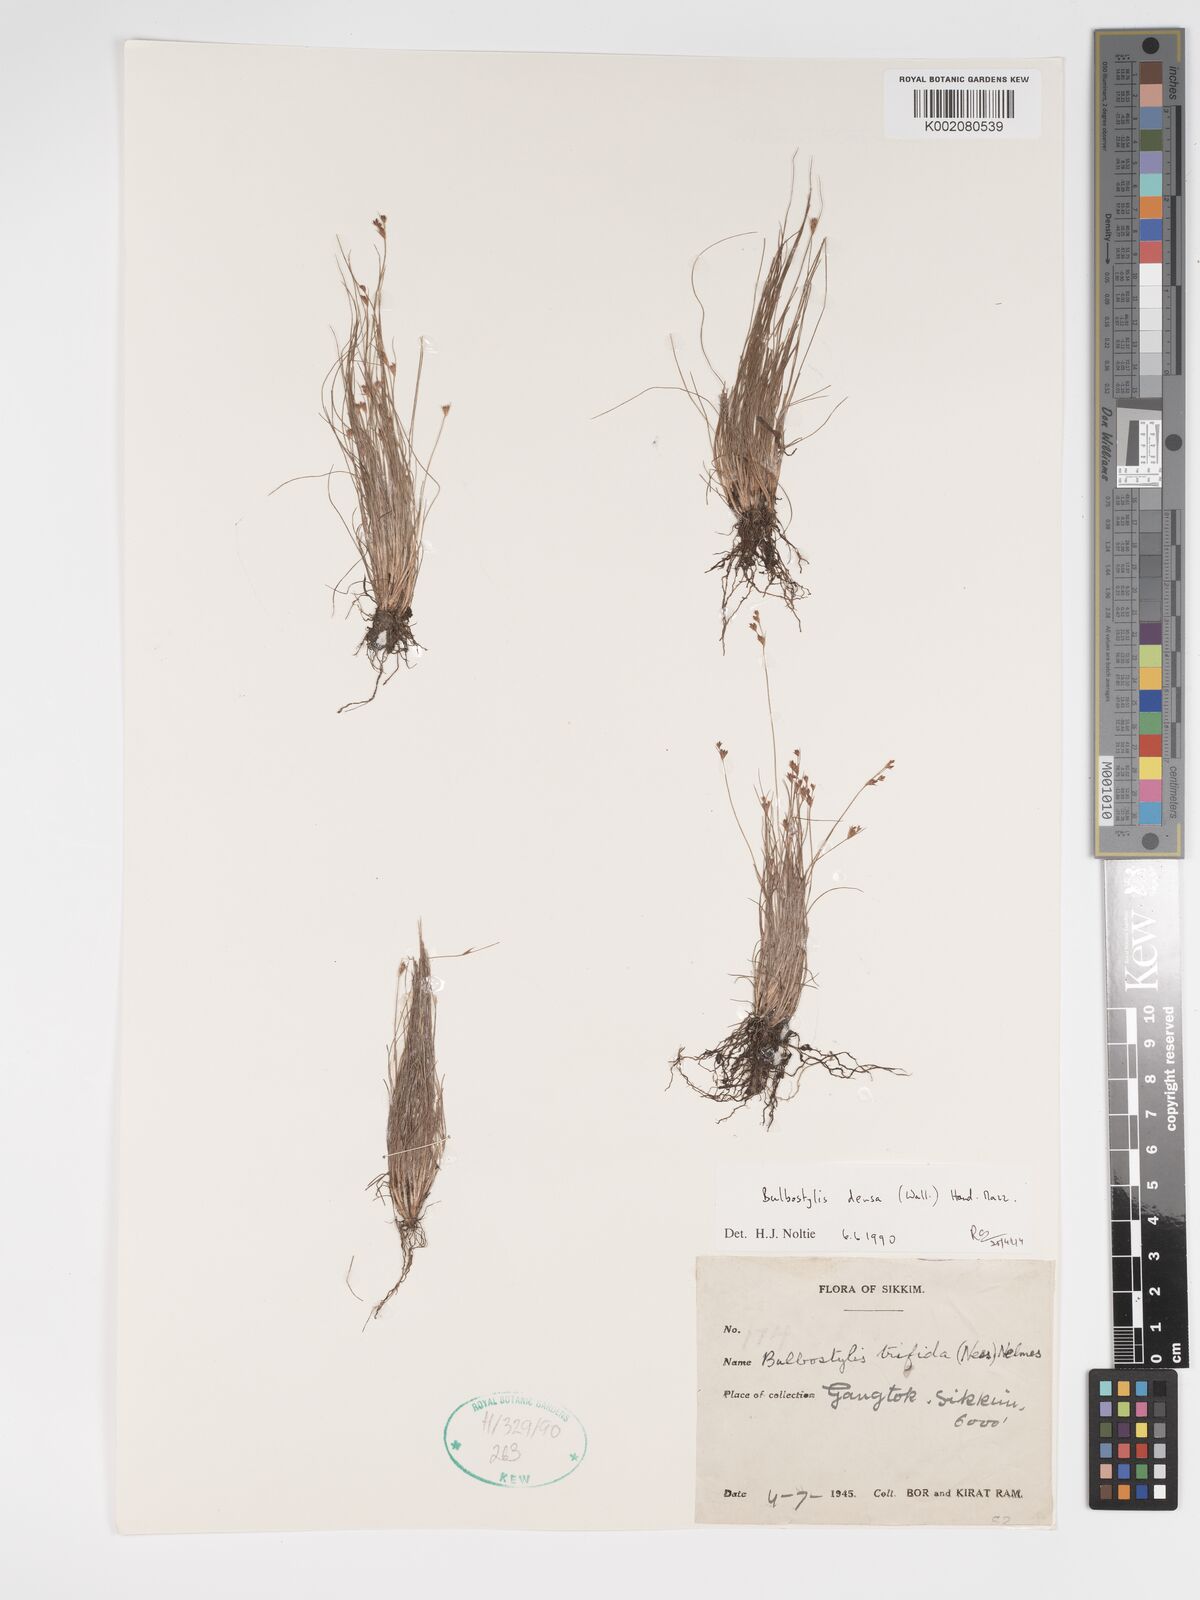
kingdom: Plantae
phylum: Tracheophyta
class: Liliopsida
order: Poales
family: Cyperaceae
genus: Bulbostylis
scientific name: Bulbostylis densa
